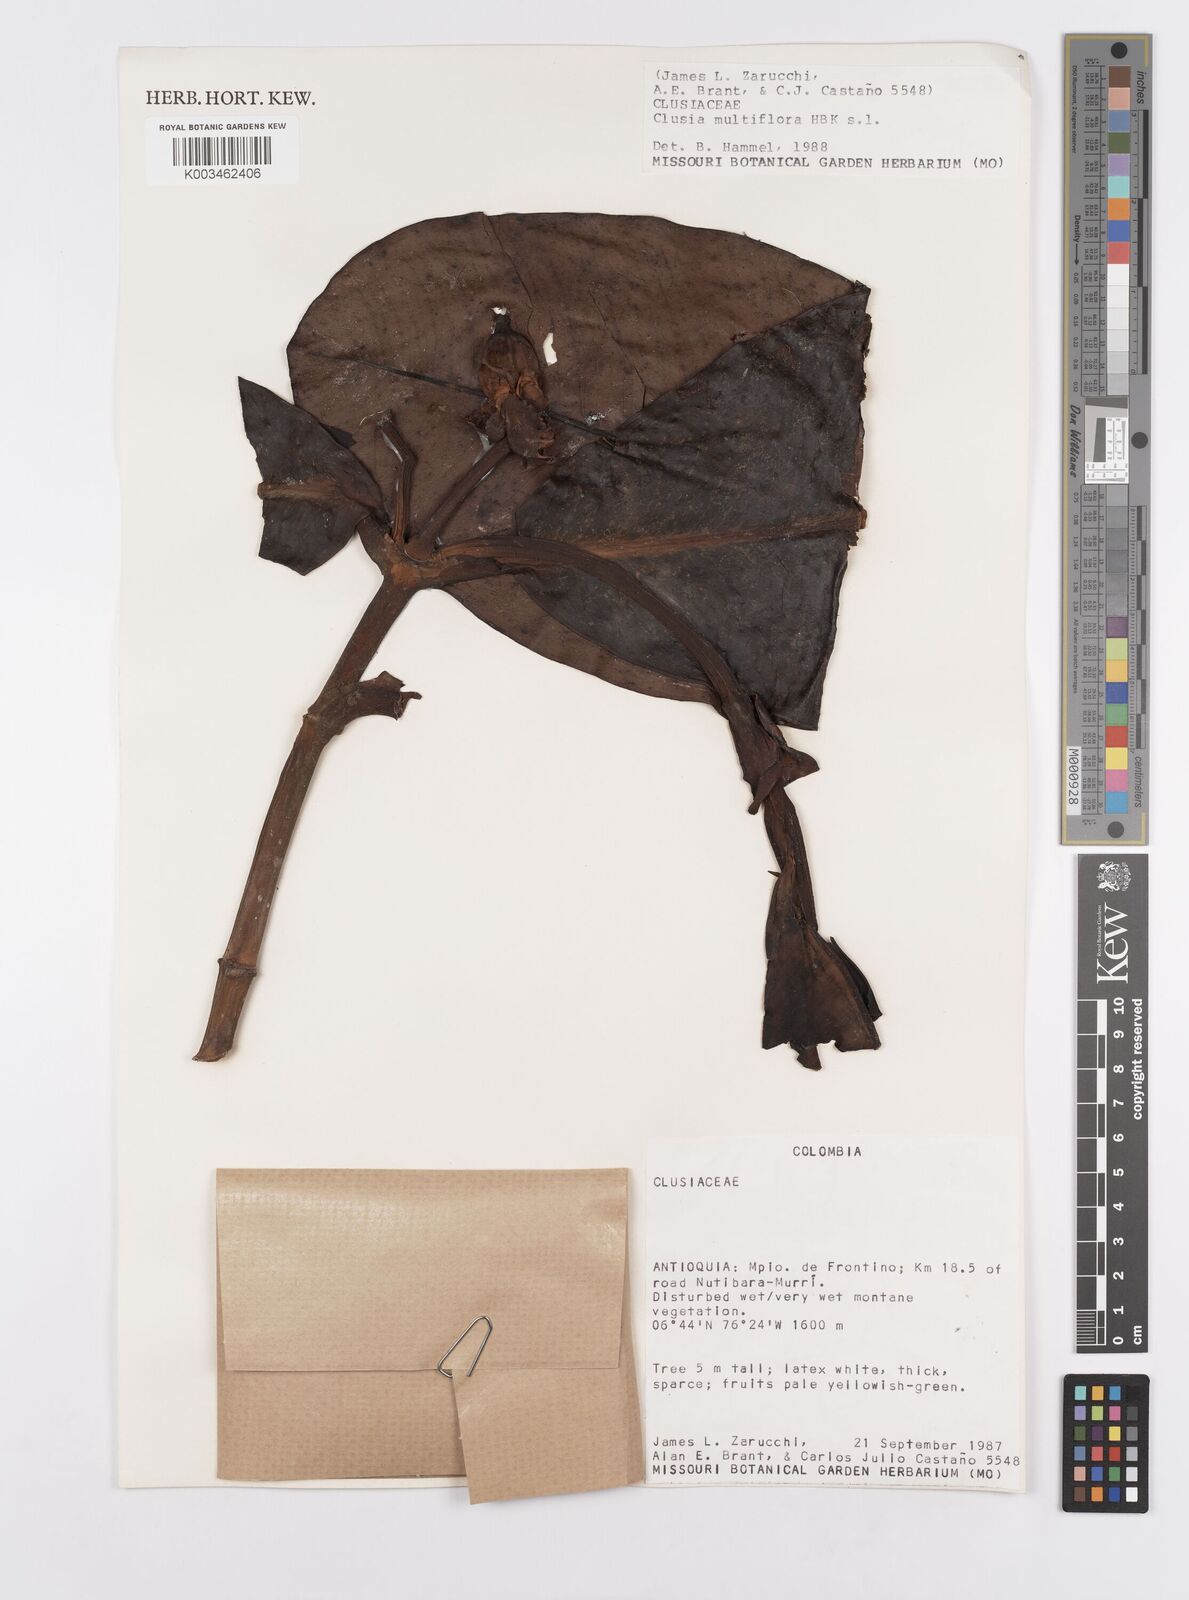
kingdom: Plantae
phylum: Tracheophyta
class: Magnoliopsida
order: Malpighiales
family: Clusiaceae
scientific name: Clusiaceae
